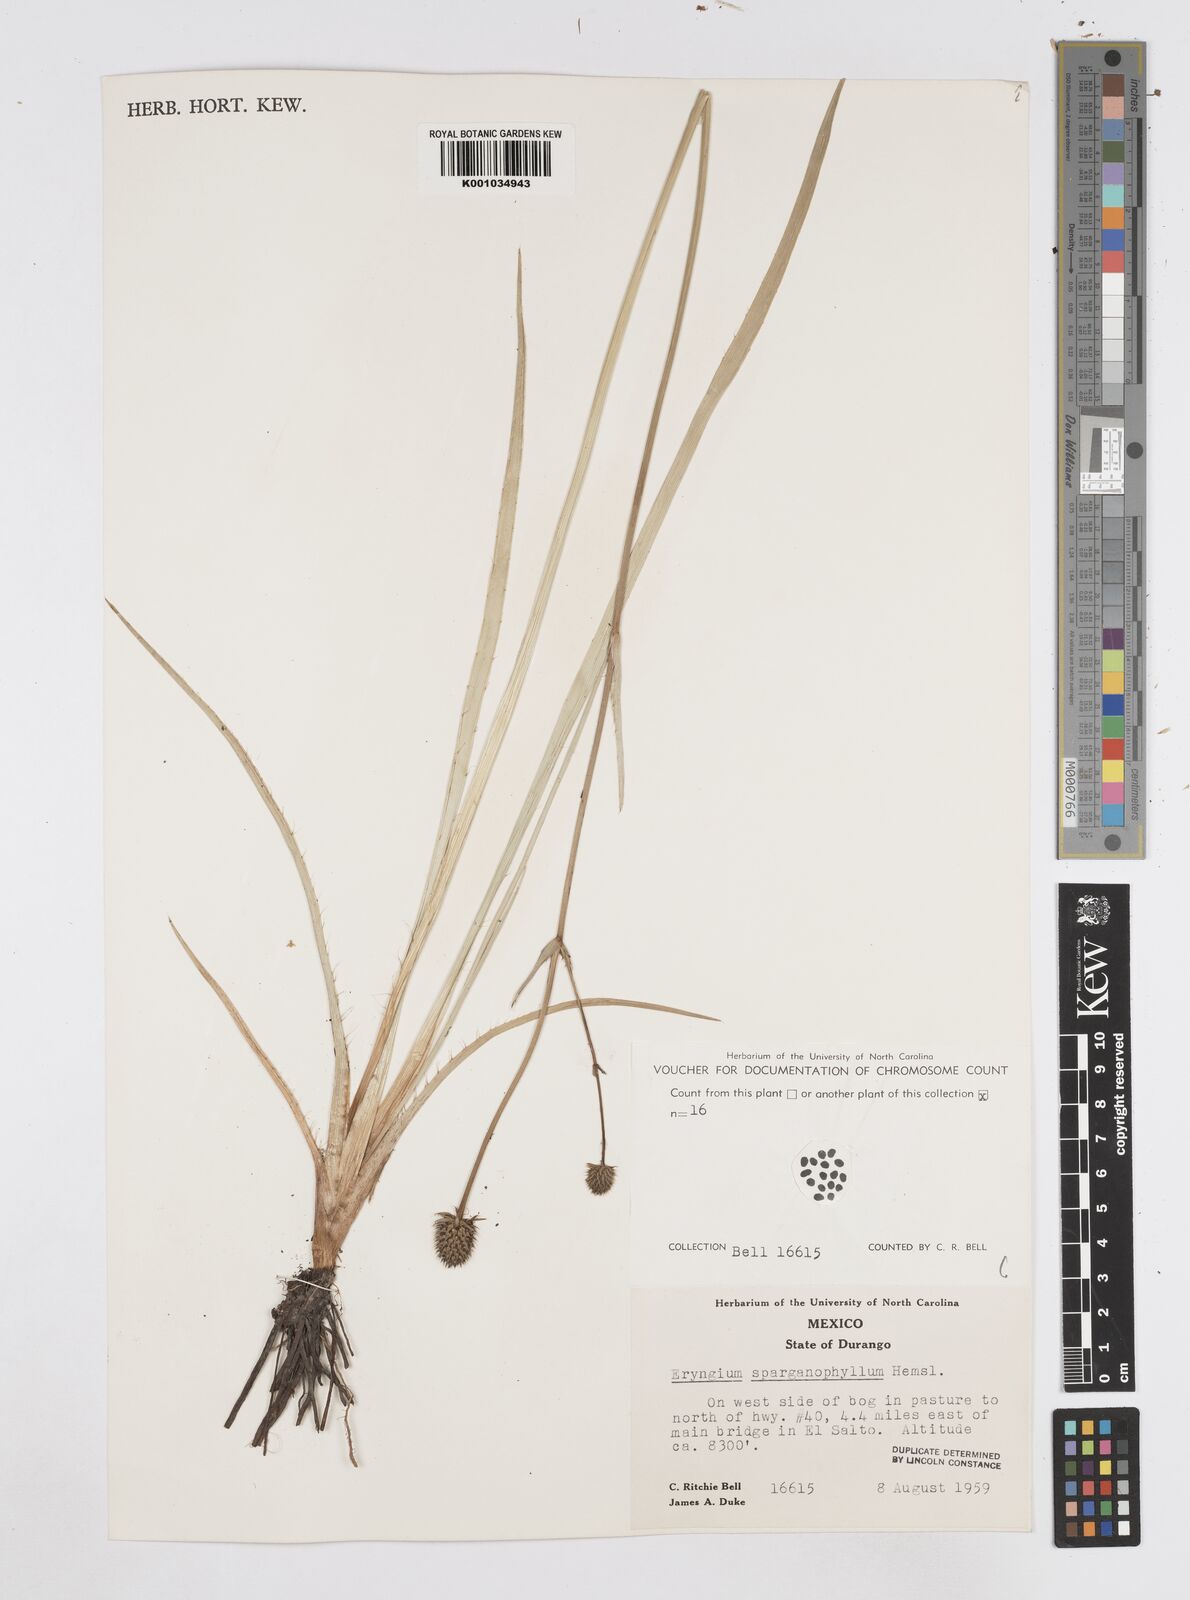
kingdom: Plantae
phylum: Tracheophyta
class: Magnoliopsida
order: Apiales
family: Apiaceae
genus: Eryngium
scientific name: Eryngium sparganophyllum
